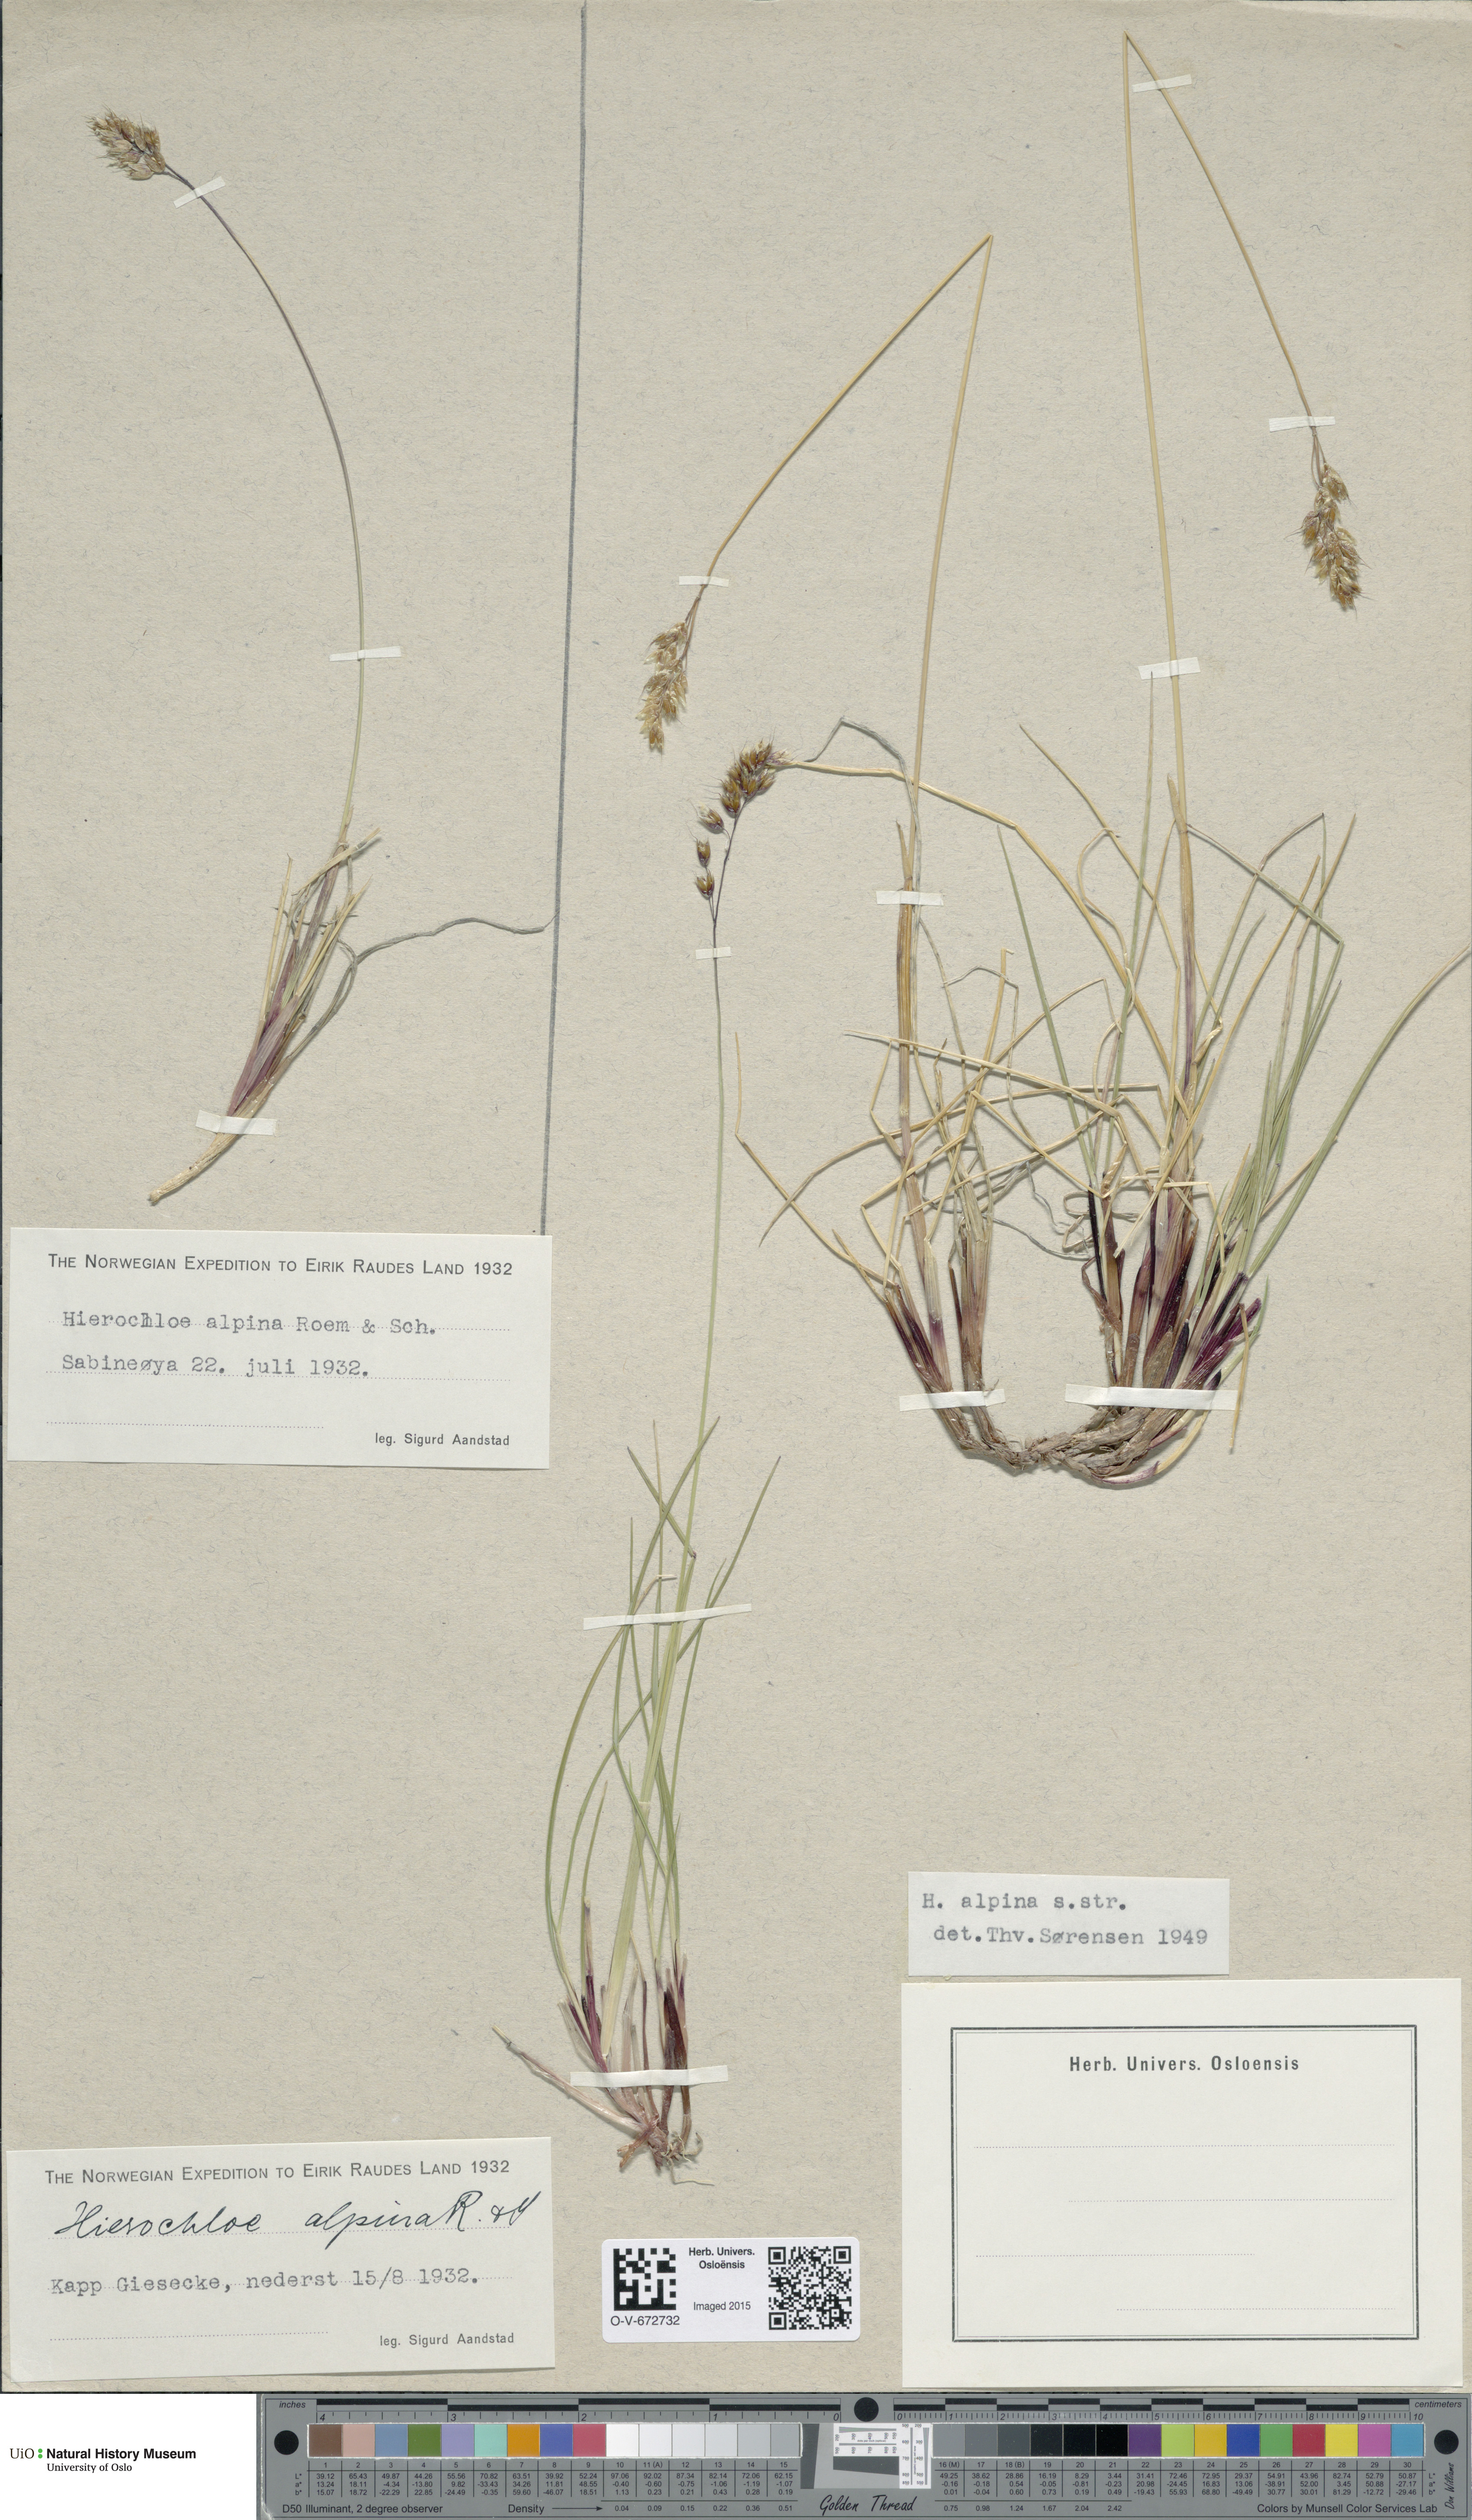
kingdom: Plantae
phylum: Tracheophyta
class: Liliopsida
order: Poales
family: Poaceae
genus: Anthoxanthum
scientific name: Anthoxanthum monticola
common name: Alpine sweetgrass
